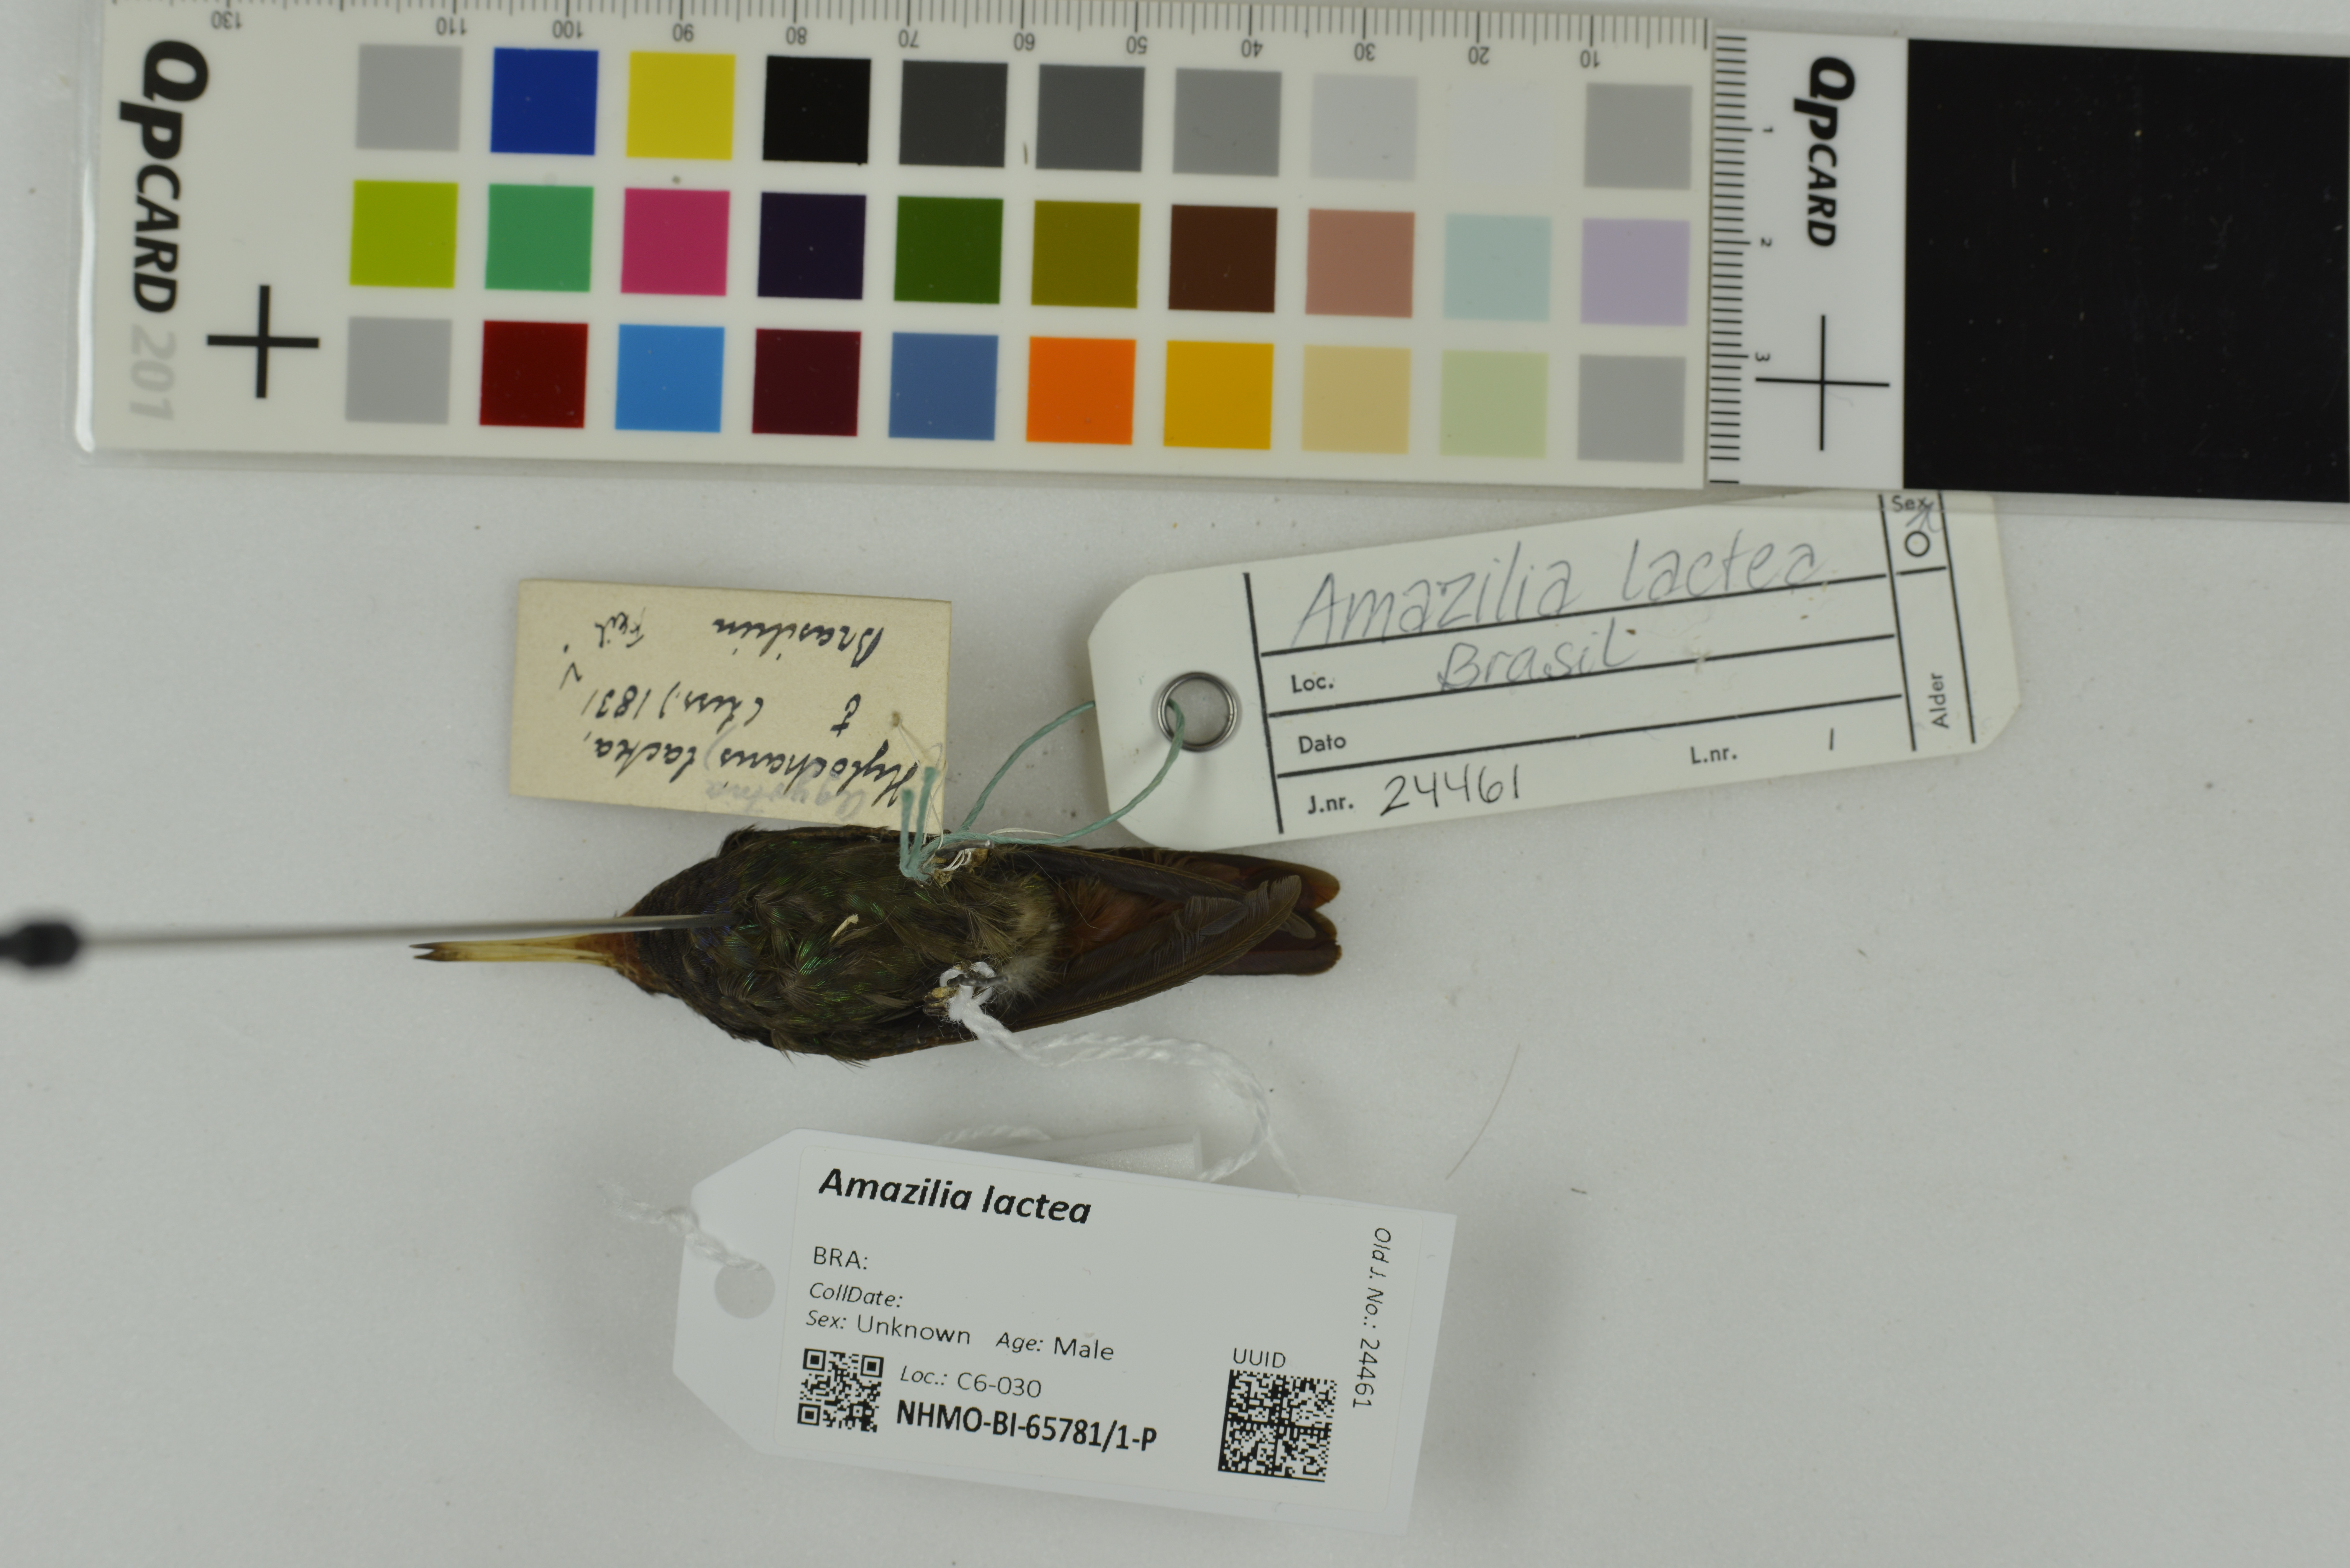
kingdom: Animalia
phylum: Chordata
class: Aves
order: Apodiformes
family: Trochilidae
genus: Chionomesa
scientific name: Chionomesa lactea
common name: Sapphire-spangled emerald
